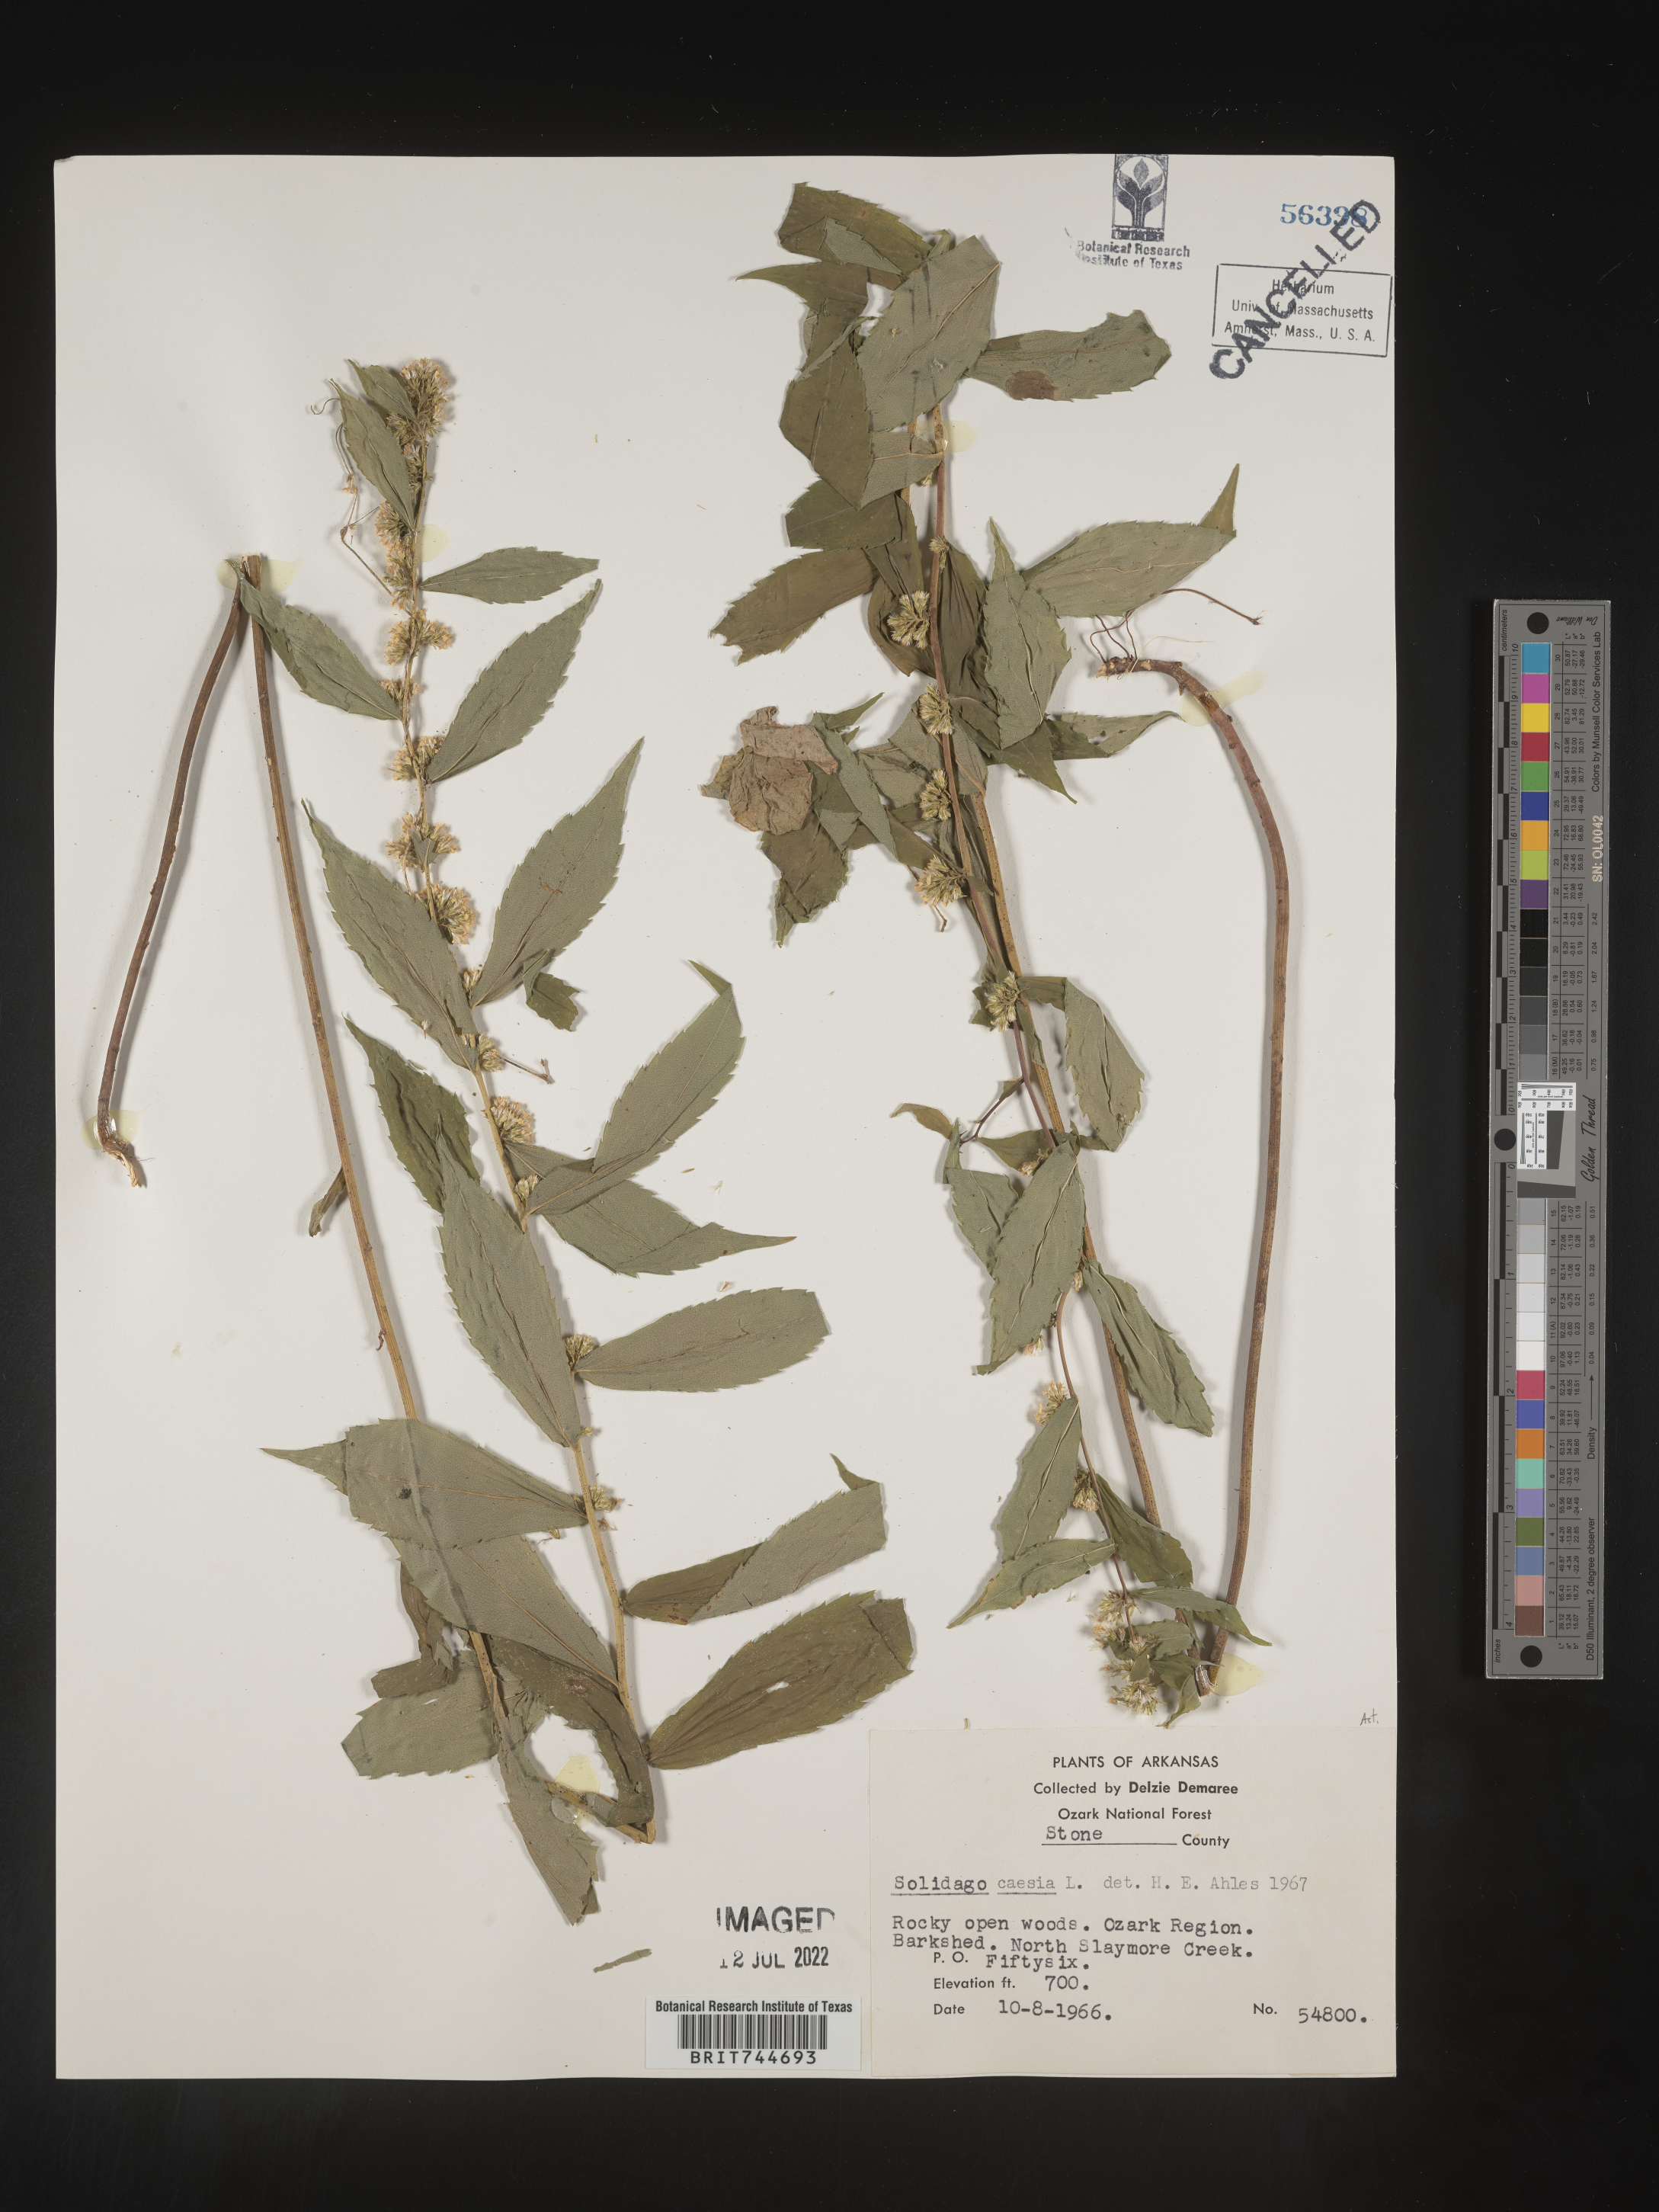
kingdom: Plantae
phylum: Tracheophyta
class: Magnoliopsida
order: Asterales
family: Asteraceae
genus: Solidago
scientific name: Solidago caesia
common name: Woodland goldenrod
